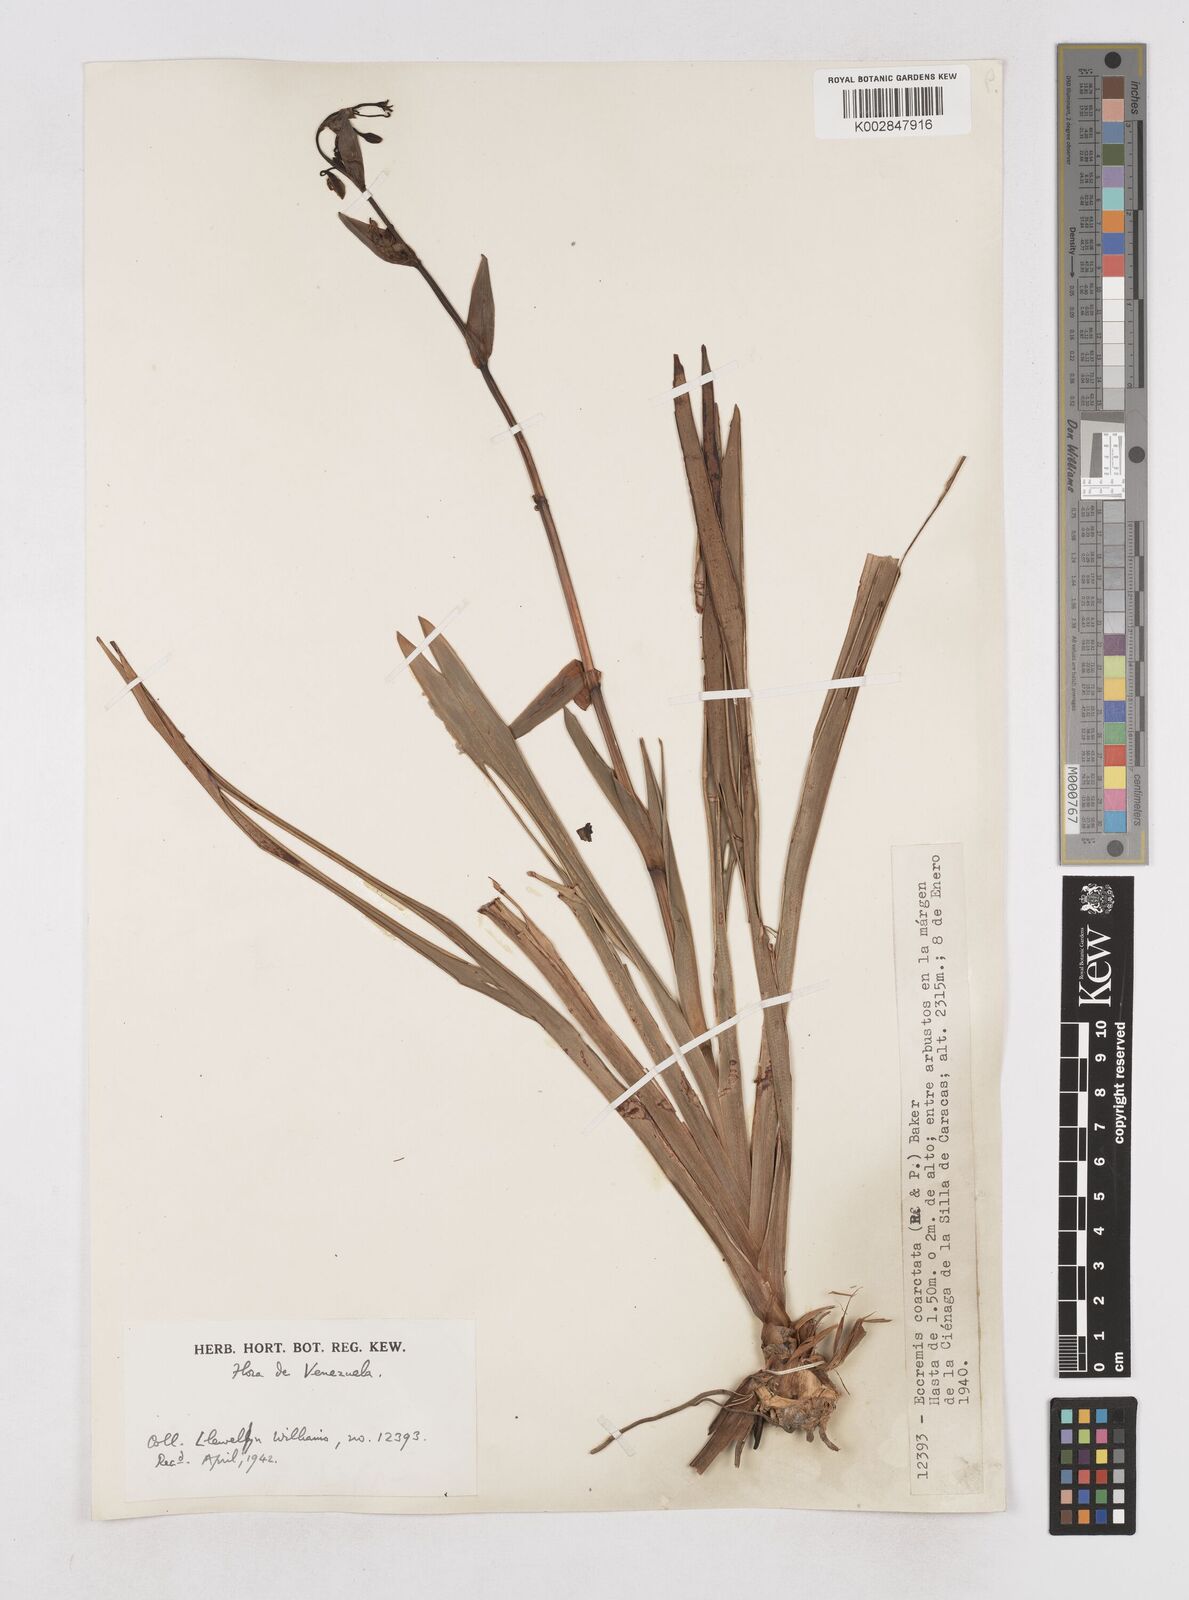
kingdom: Plantae
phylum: Tracheophyta
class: Liliopsida
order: Asparagales
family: Asphodelaceae
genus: Excremis
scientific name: Excremis coarctata
